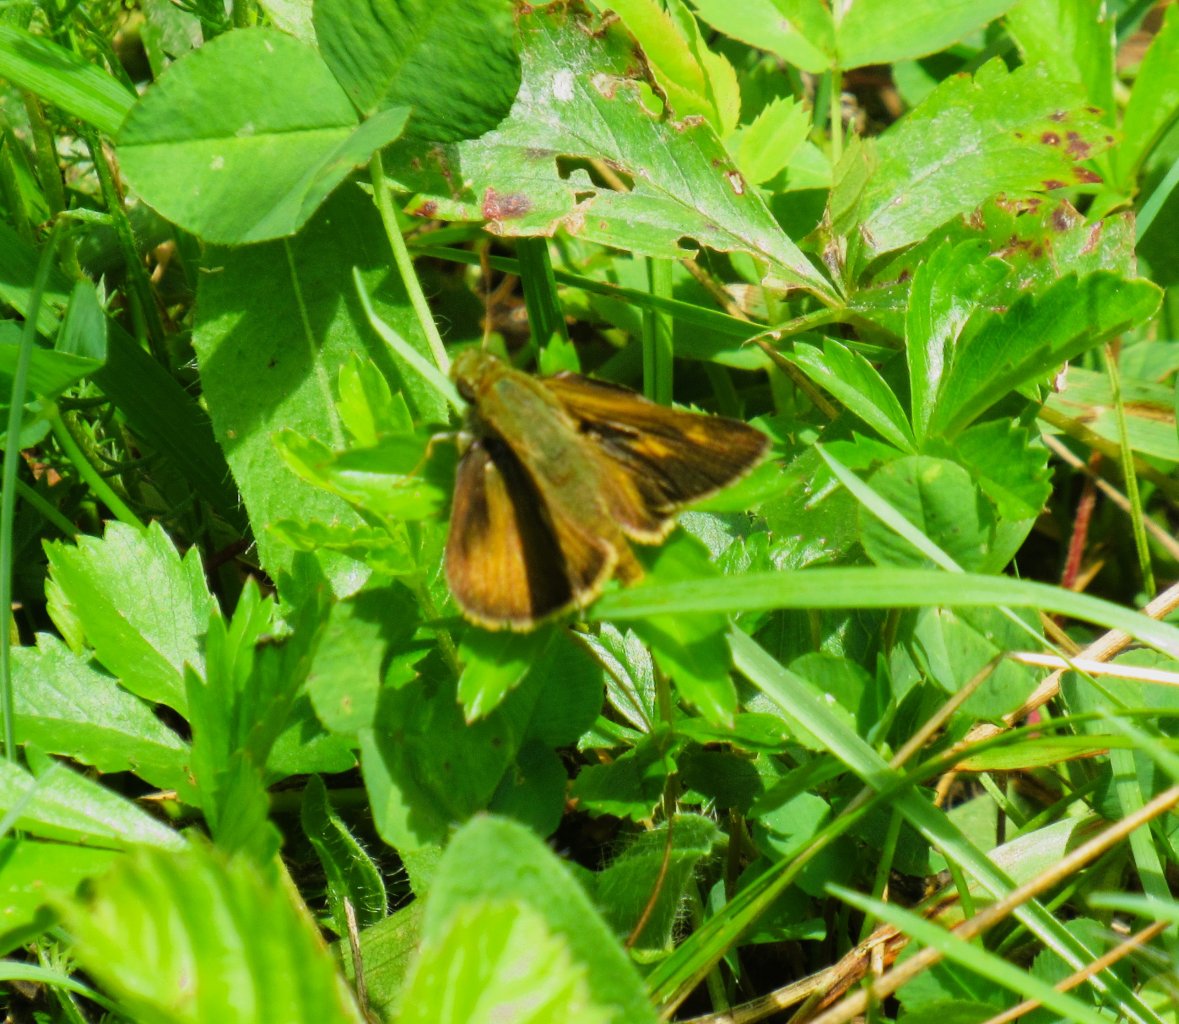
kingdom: Animalia
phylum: Arthropoda
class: Insecta
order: Lepidoptera
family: Hesperiidae
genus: Polites
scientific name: Polites egeremet
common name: Northern Broken-Dash
